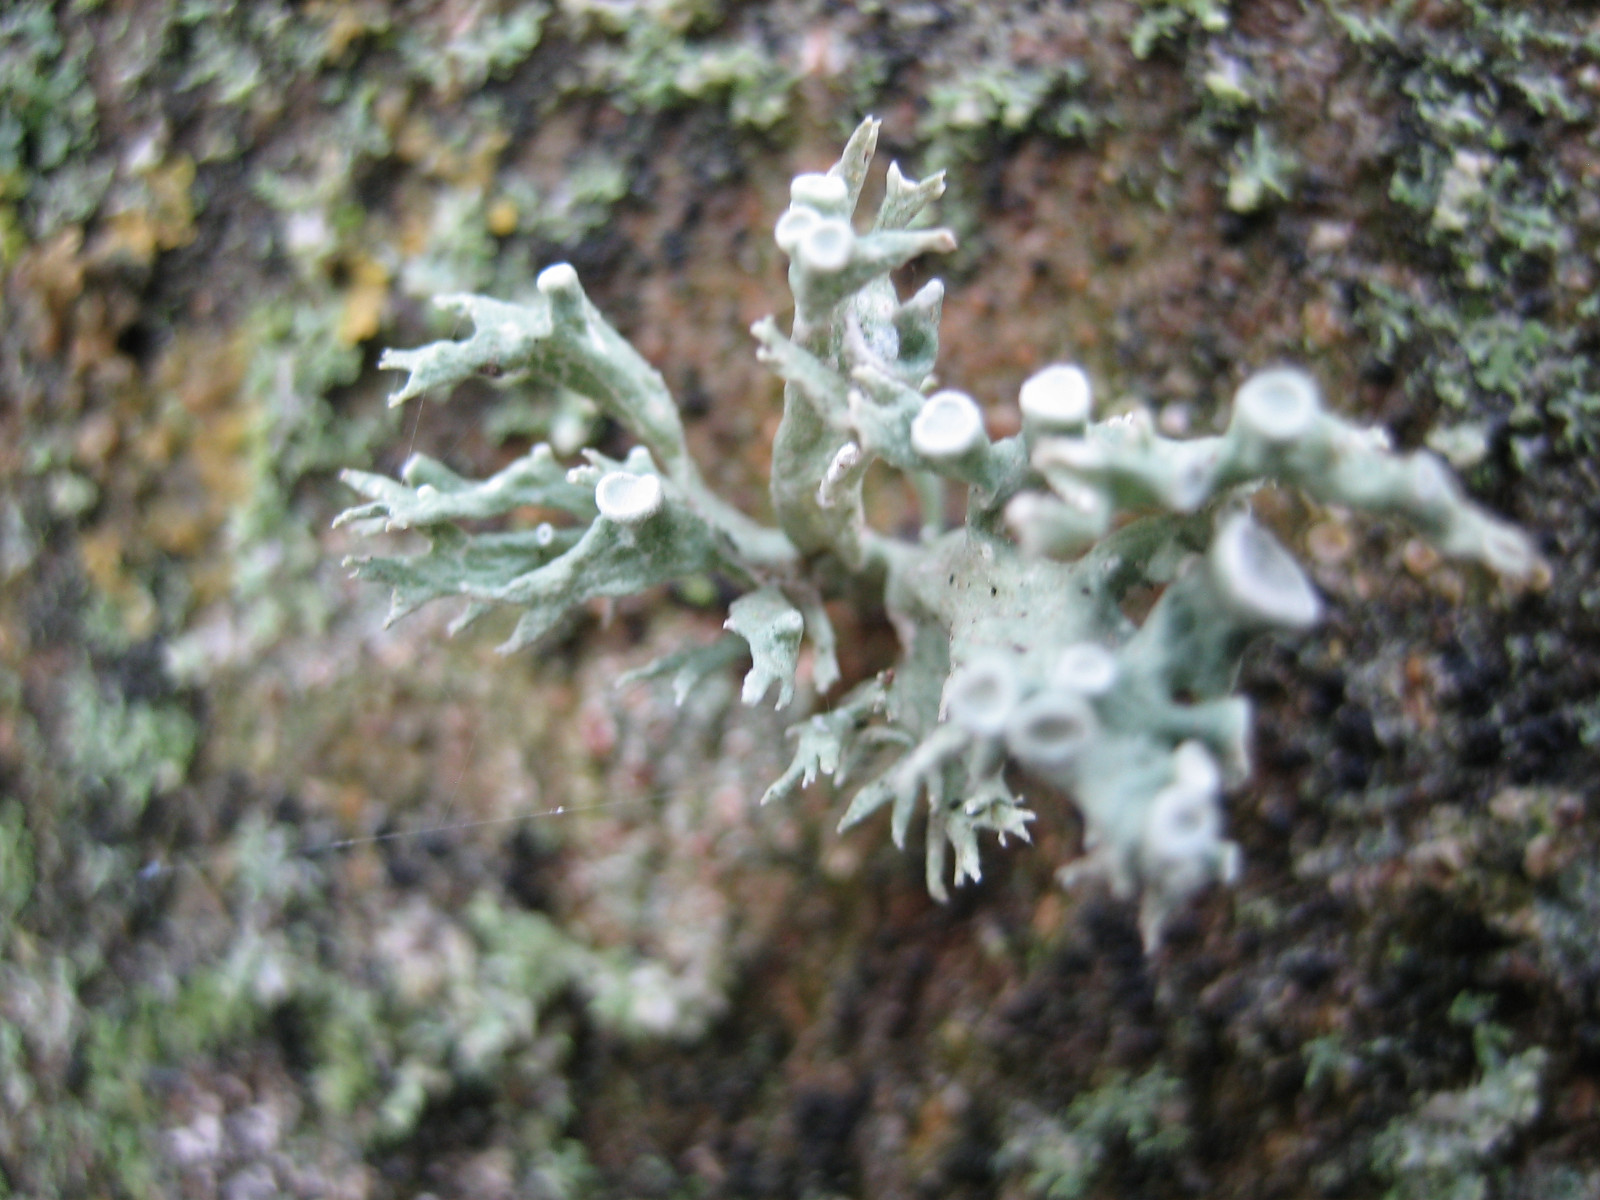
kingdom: Fungi
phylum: Ascomycota
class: Lecanoromycetes
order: Lecanorales
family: Ramalinaceae
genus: Ramalina
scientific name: Ramalina fastigiata
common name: tue-grenlav
